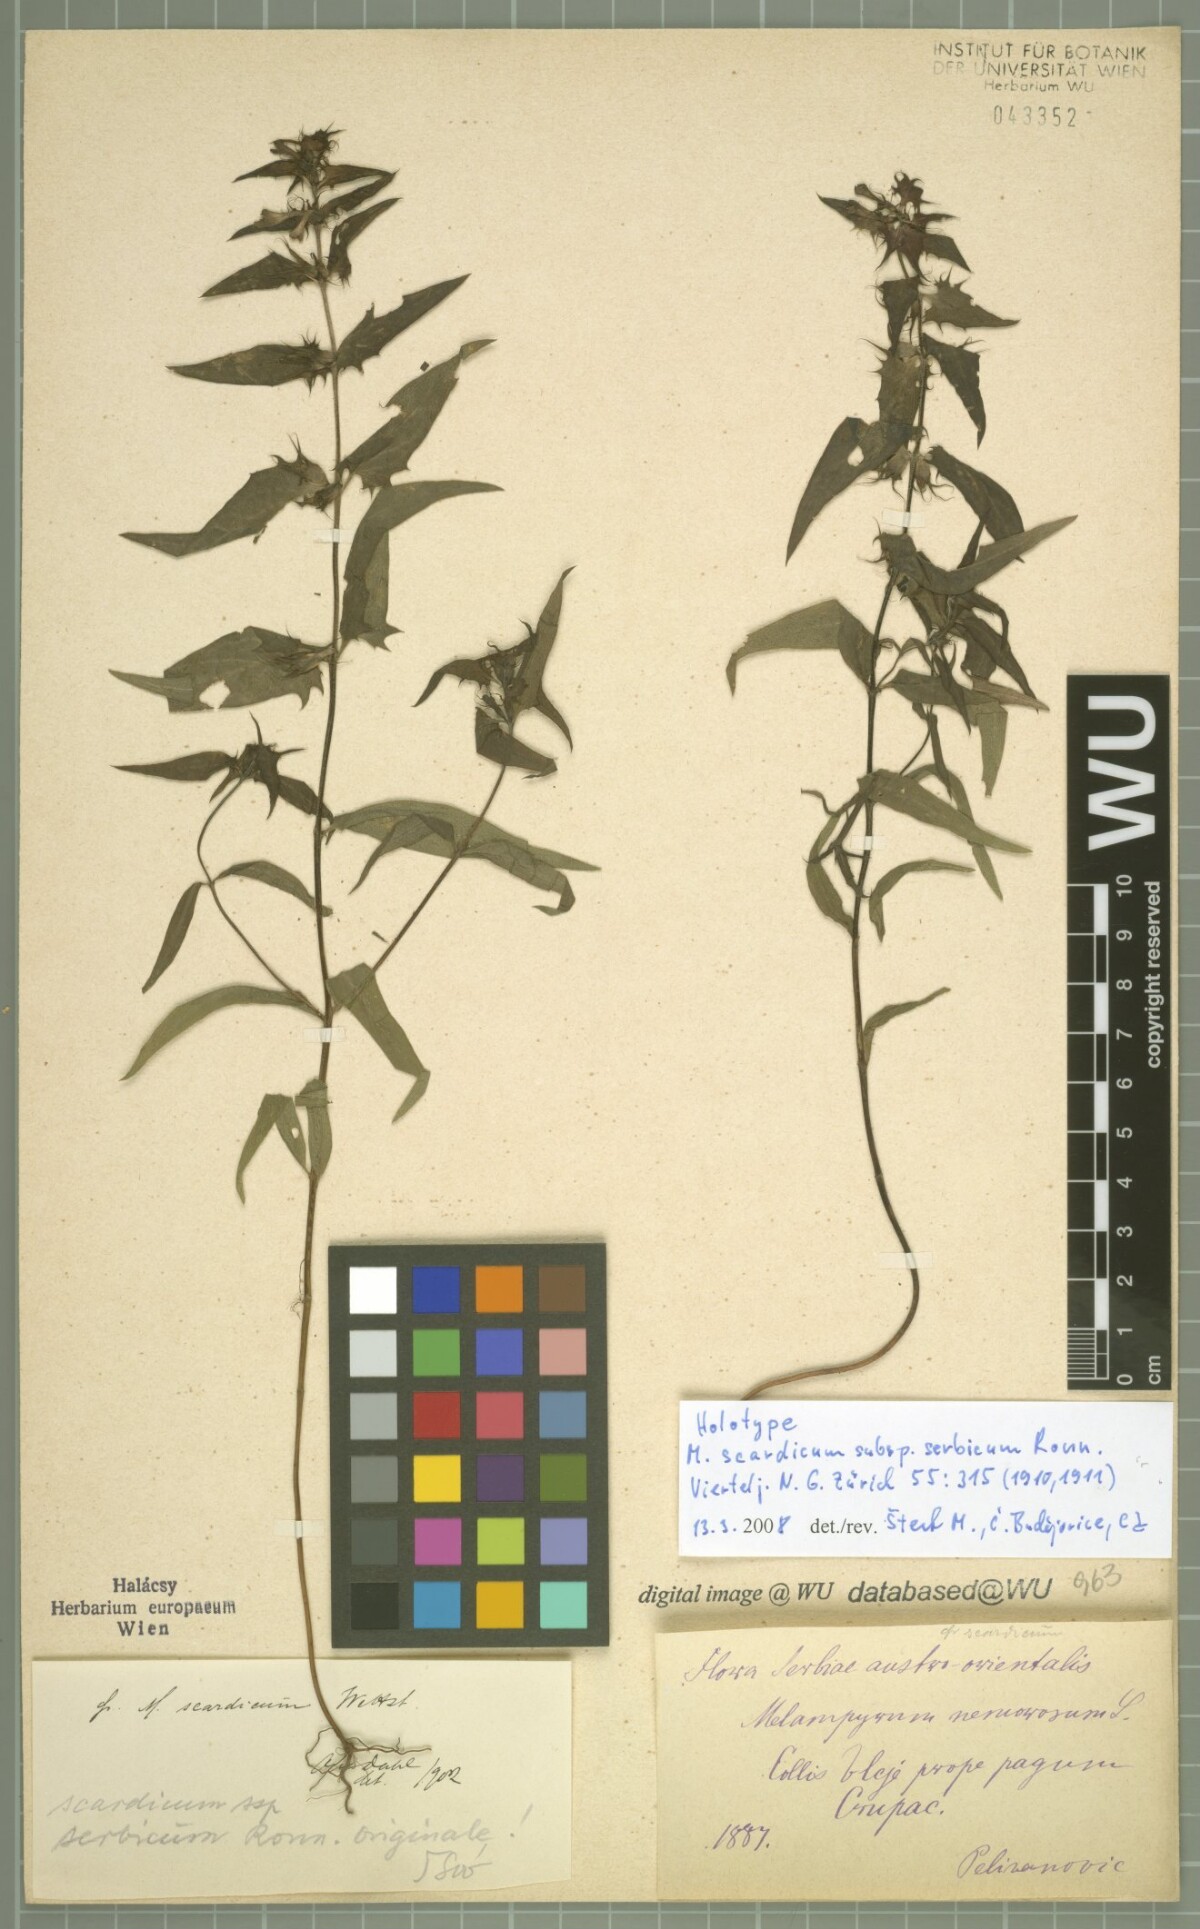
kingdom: Plantae
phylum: Tracheophyta
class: Magnoliopsida
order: Lamiales
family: Orobanchaceae
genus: Melampyrum
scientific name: Melampyrum scardicum
